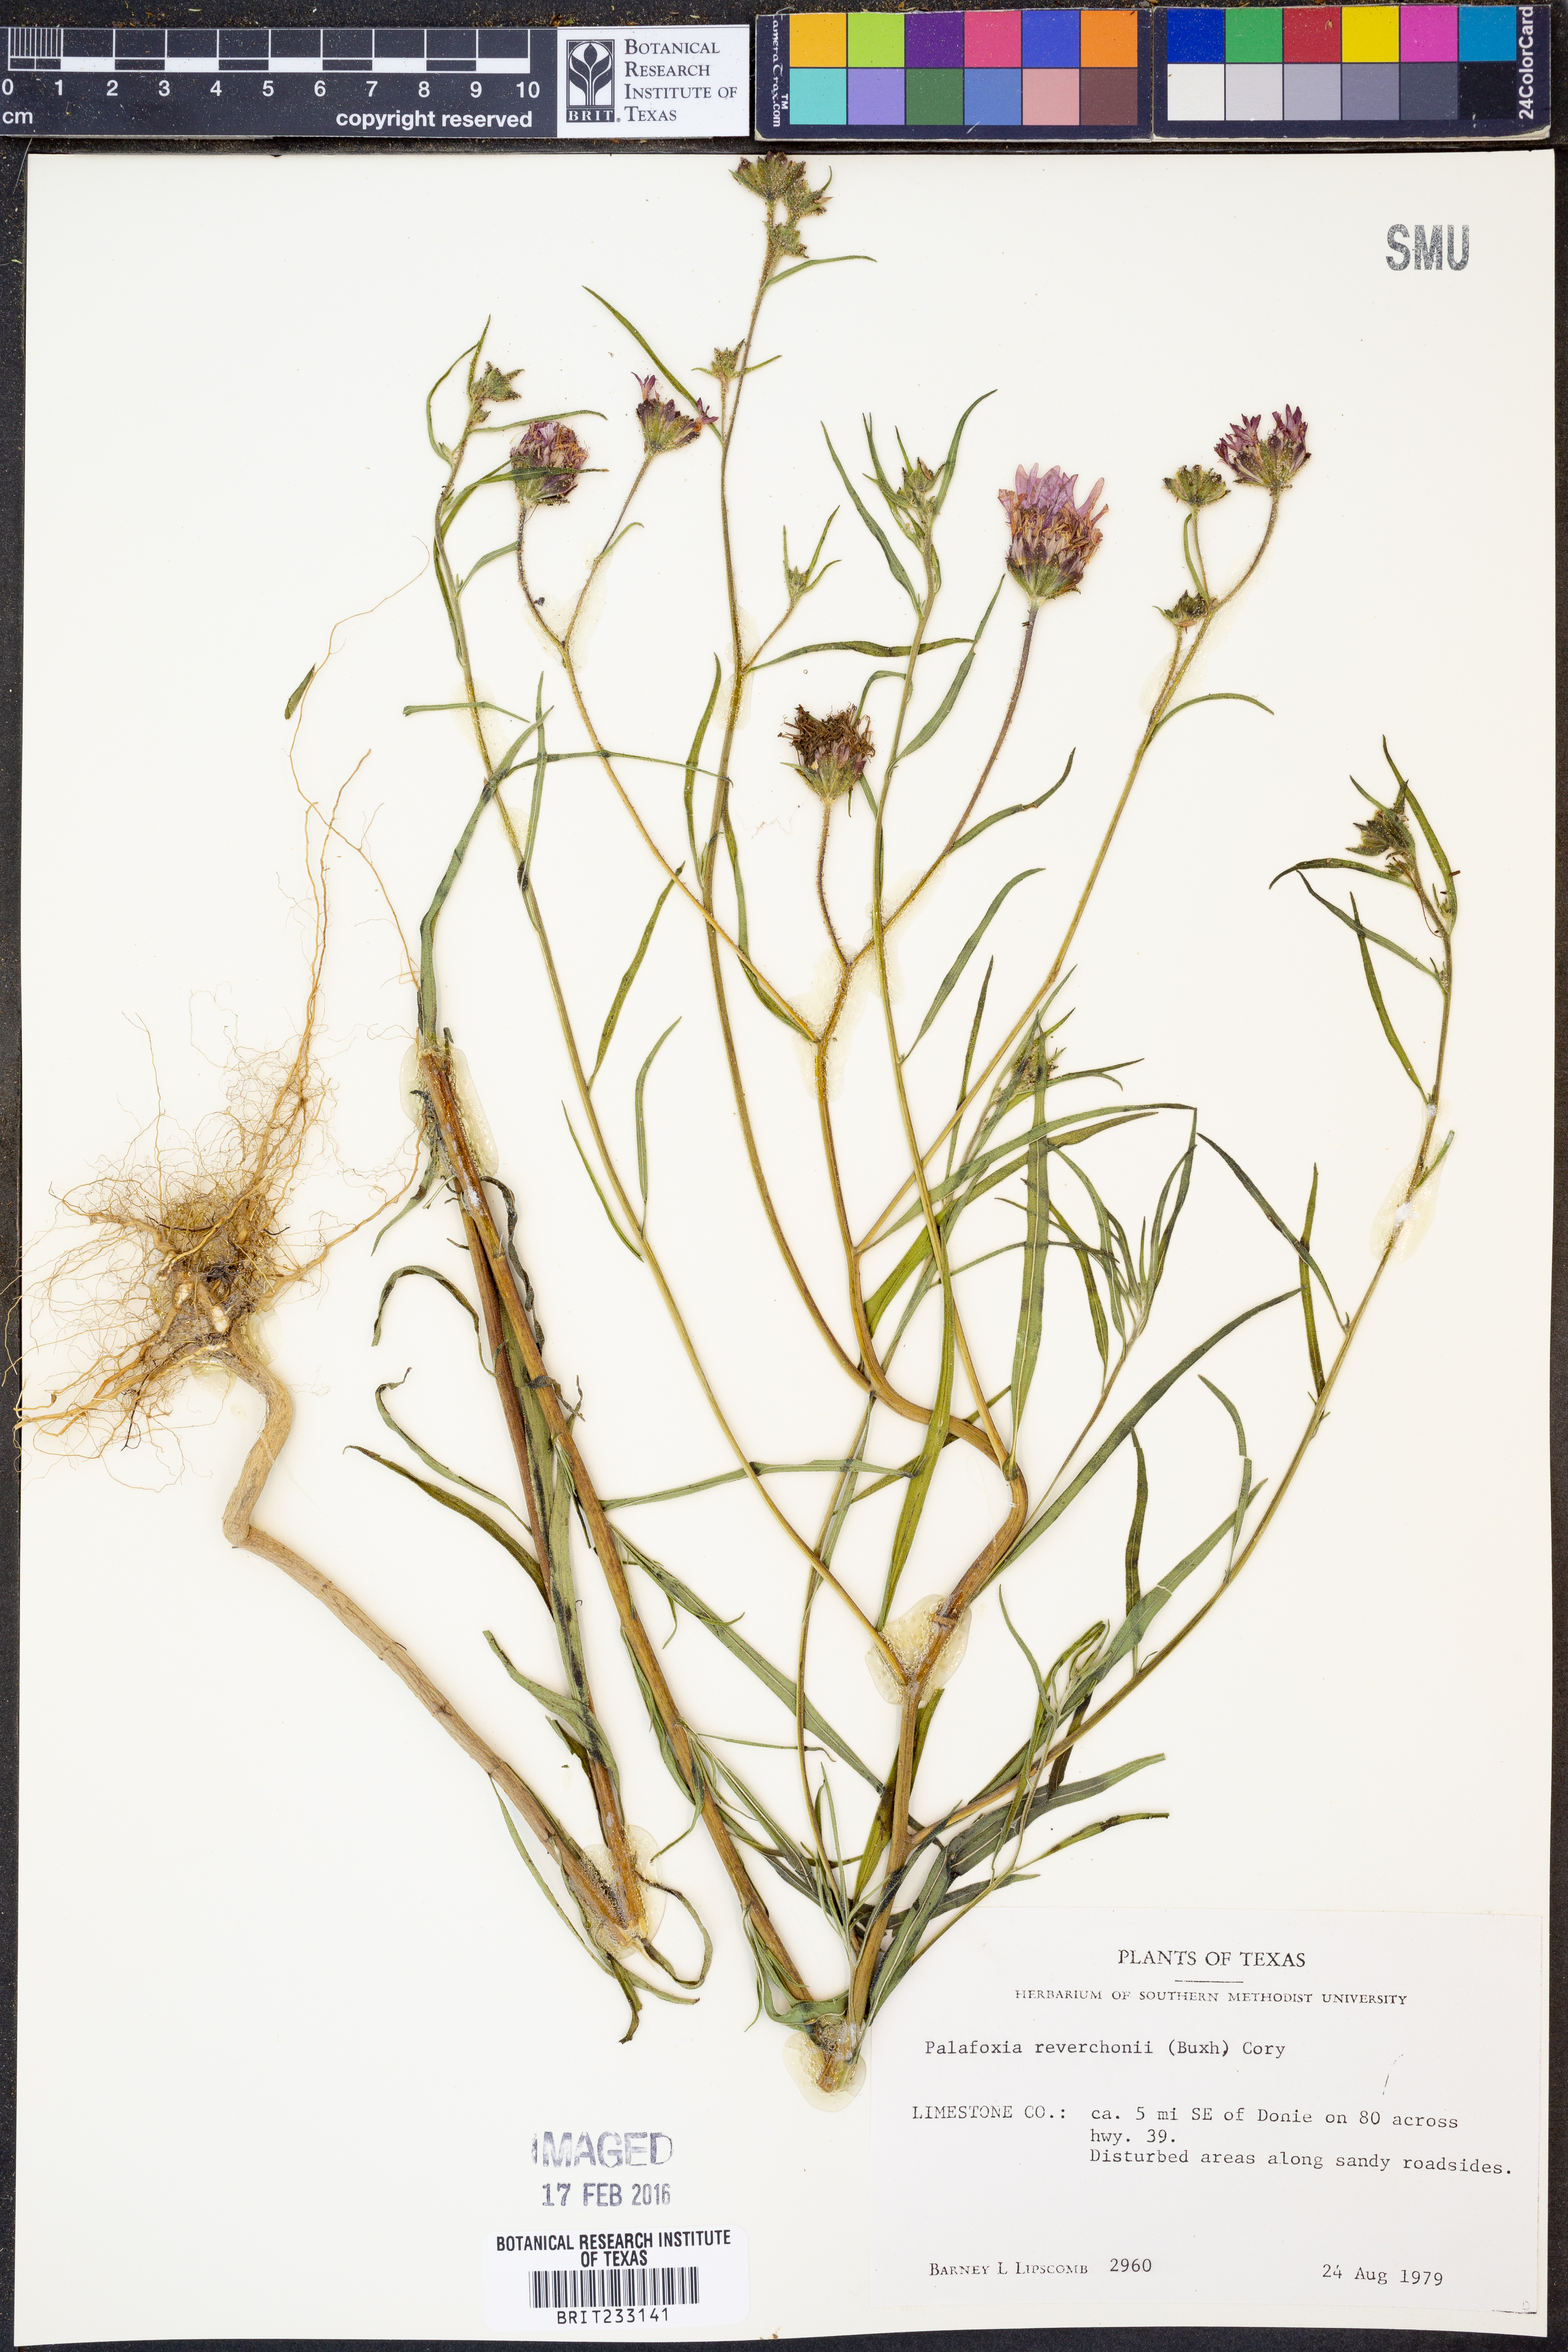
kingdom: Plantae
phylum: Tracheophyta
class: Magnoliopsida
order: Asterales
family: Asteraceae
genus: Palafoxia
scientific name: Palafoxia reverchonii
